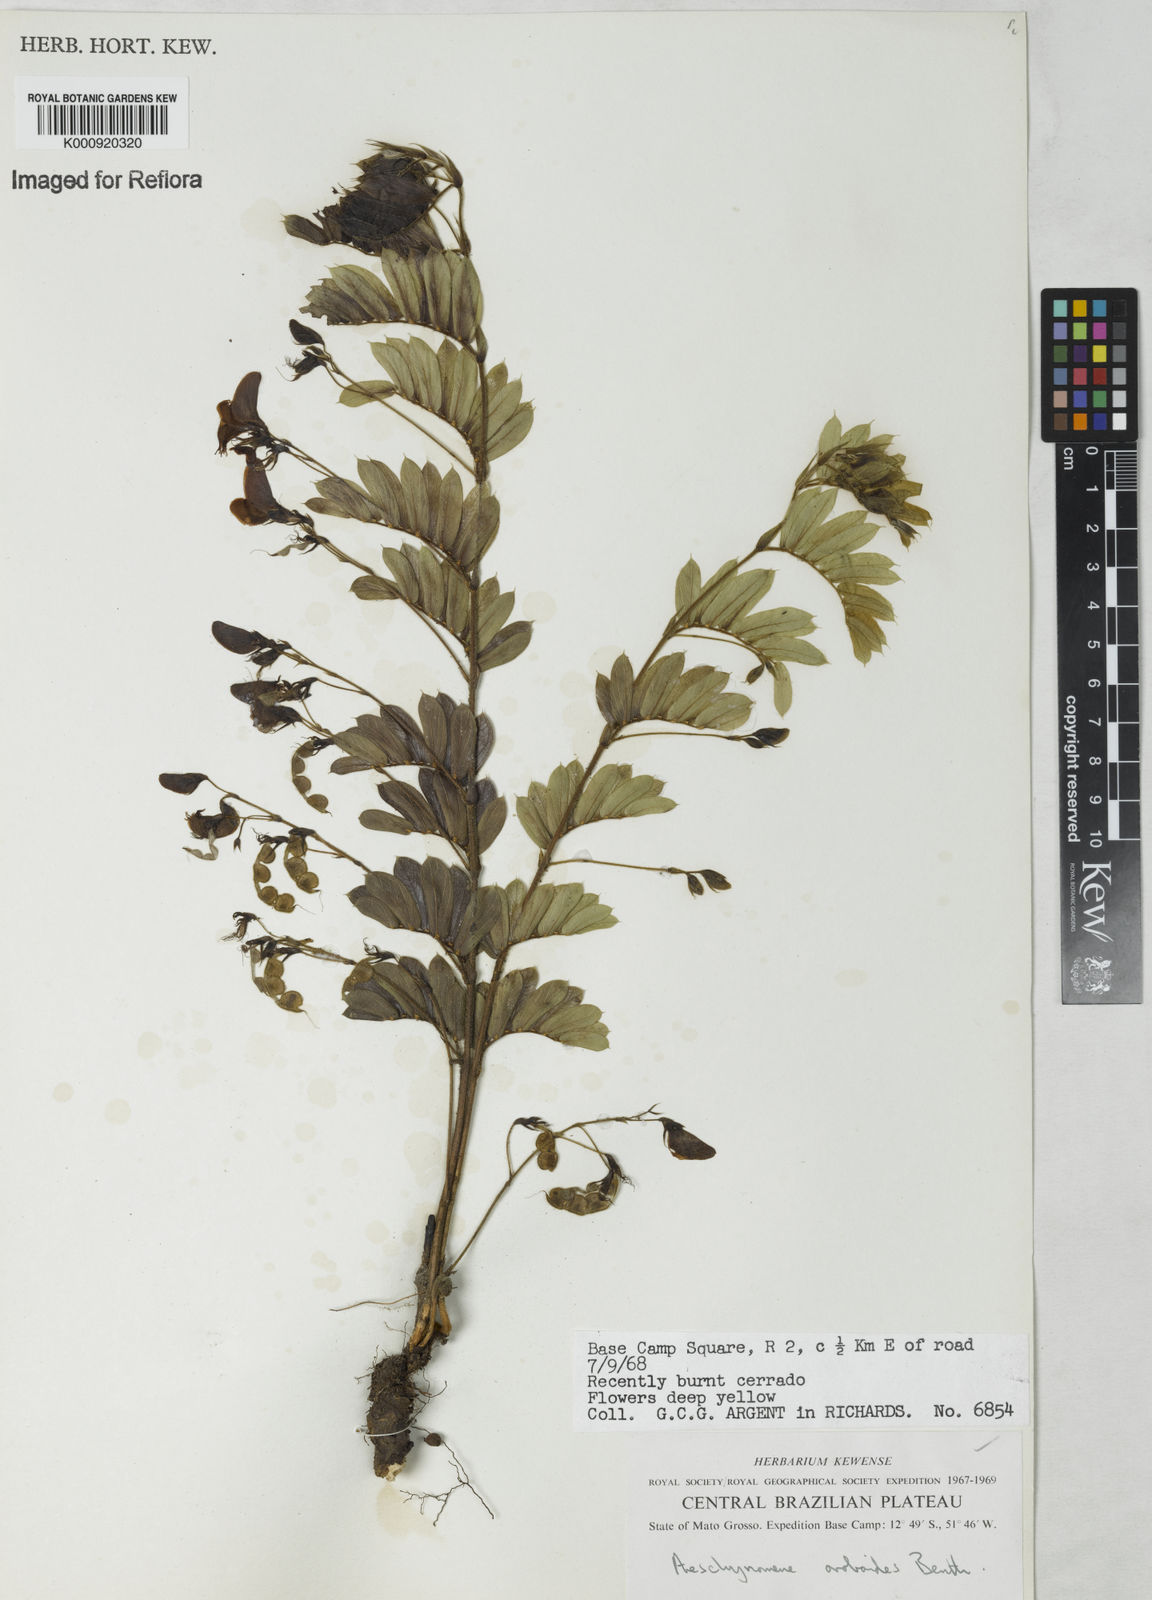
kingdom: Plantae
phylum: Tracheophyta
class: Magnoliopsida
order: Fabales
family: Fabaceae
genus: Ctenodon
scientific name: Ctenodon oroboides
